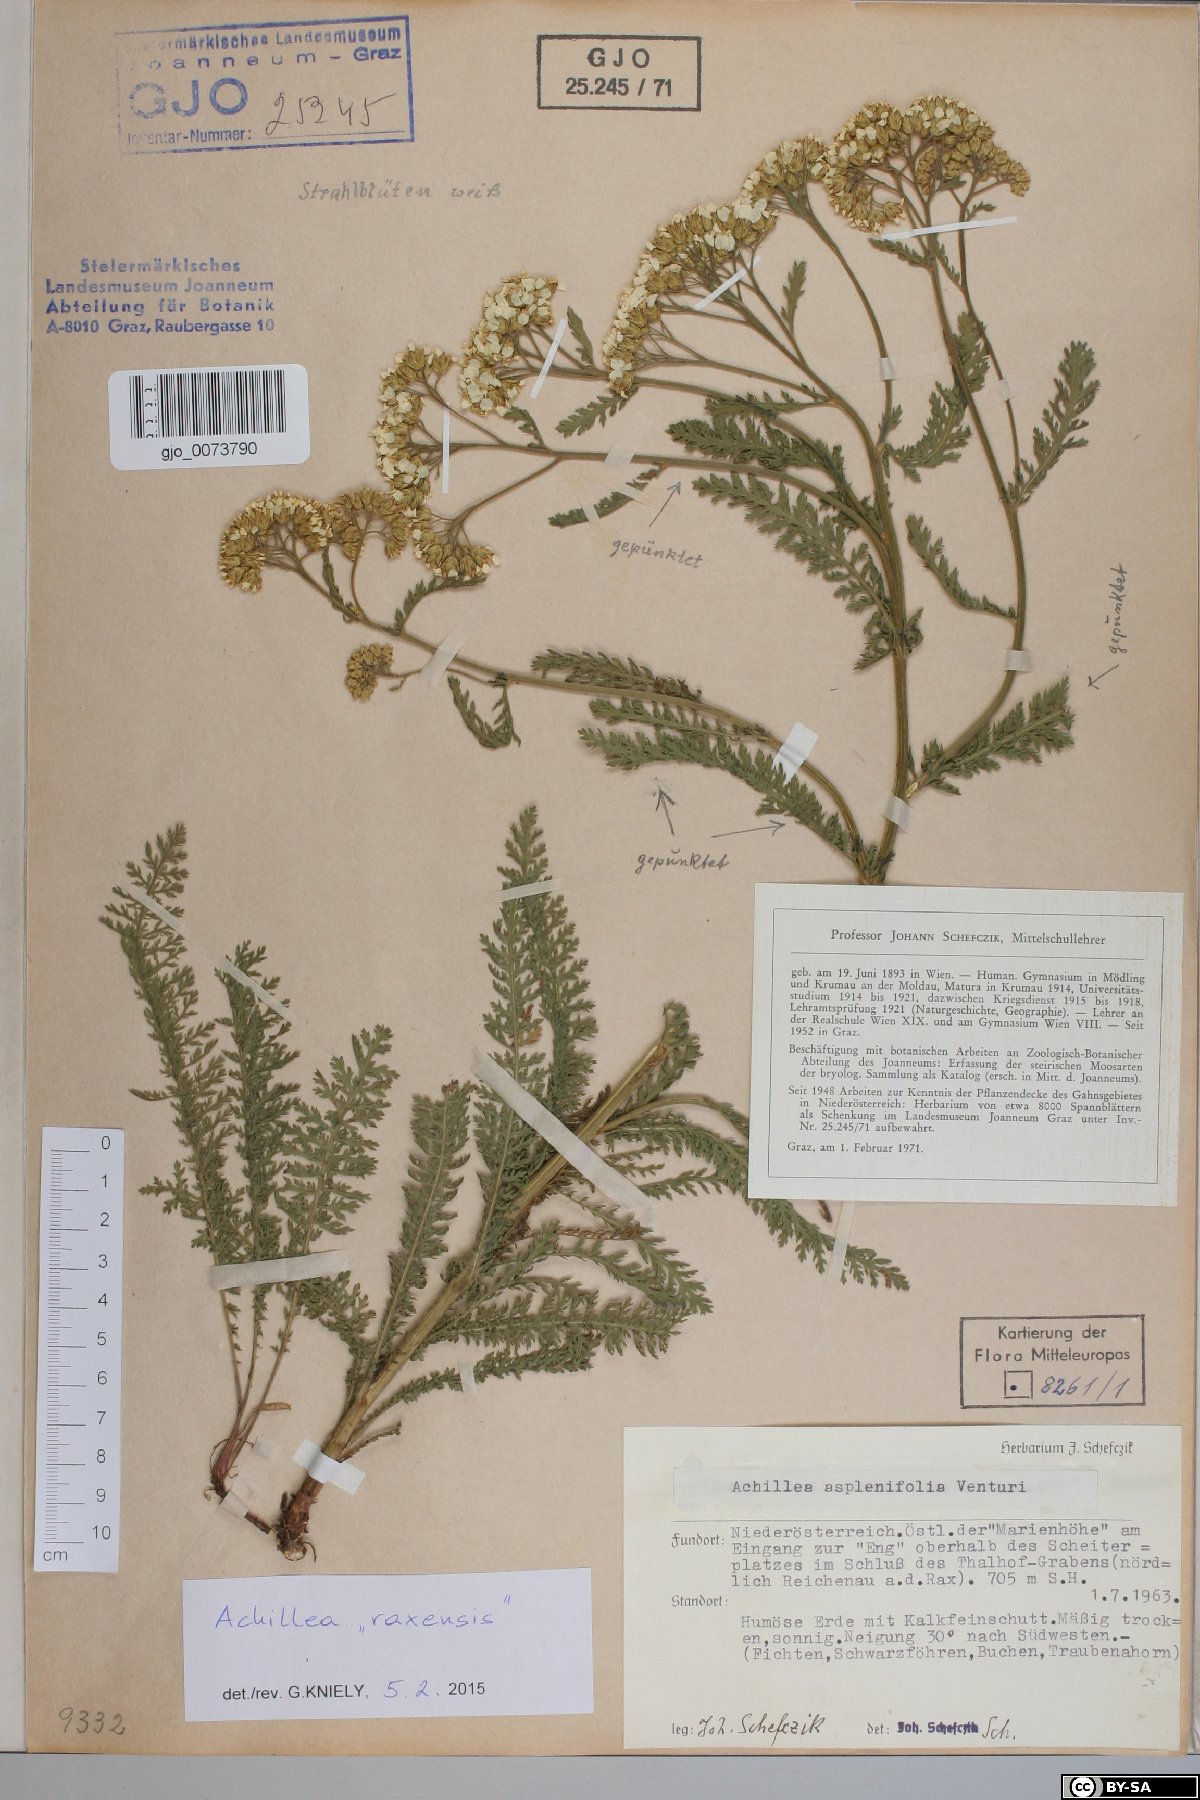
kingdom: Plantae
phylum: Tracheophyta
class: Magnoliopsida
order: Asterales
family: Asteraceae
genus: Achillea
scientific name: Achillea
